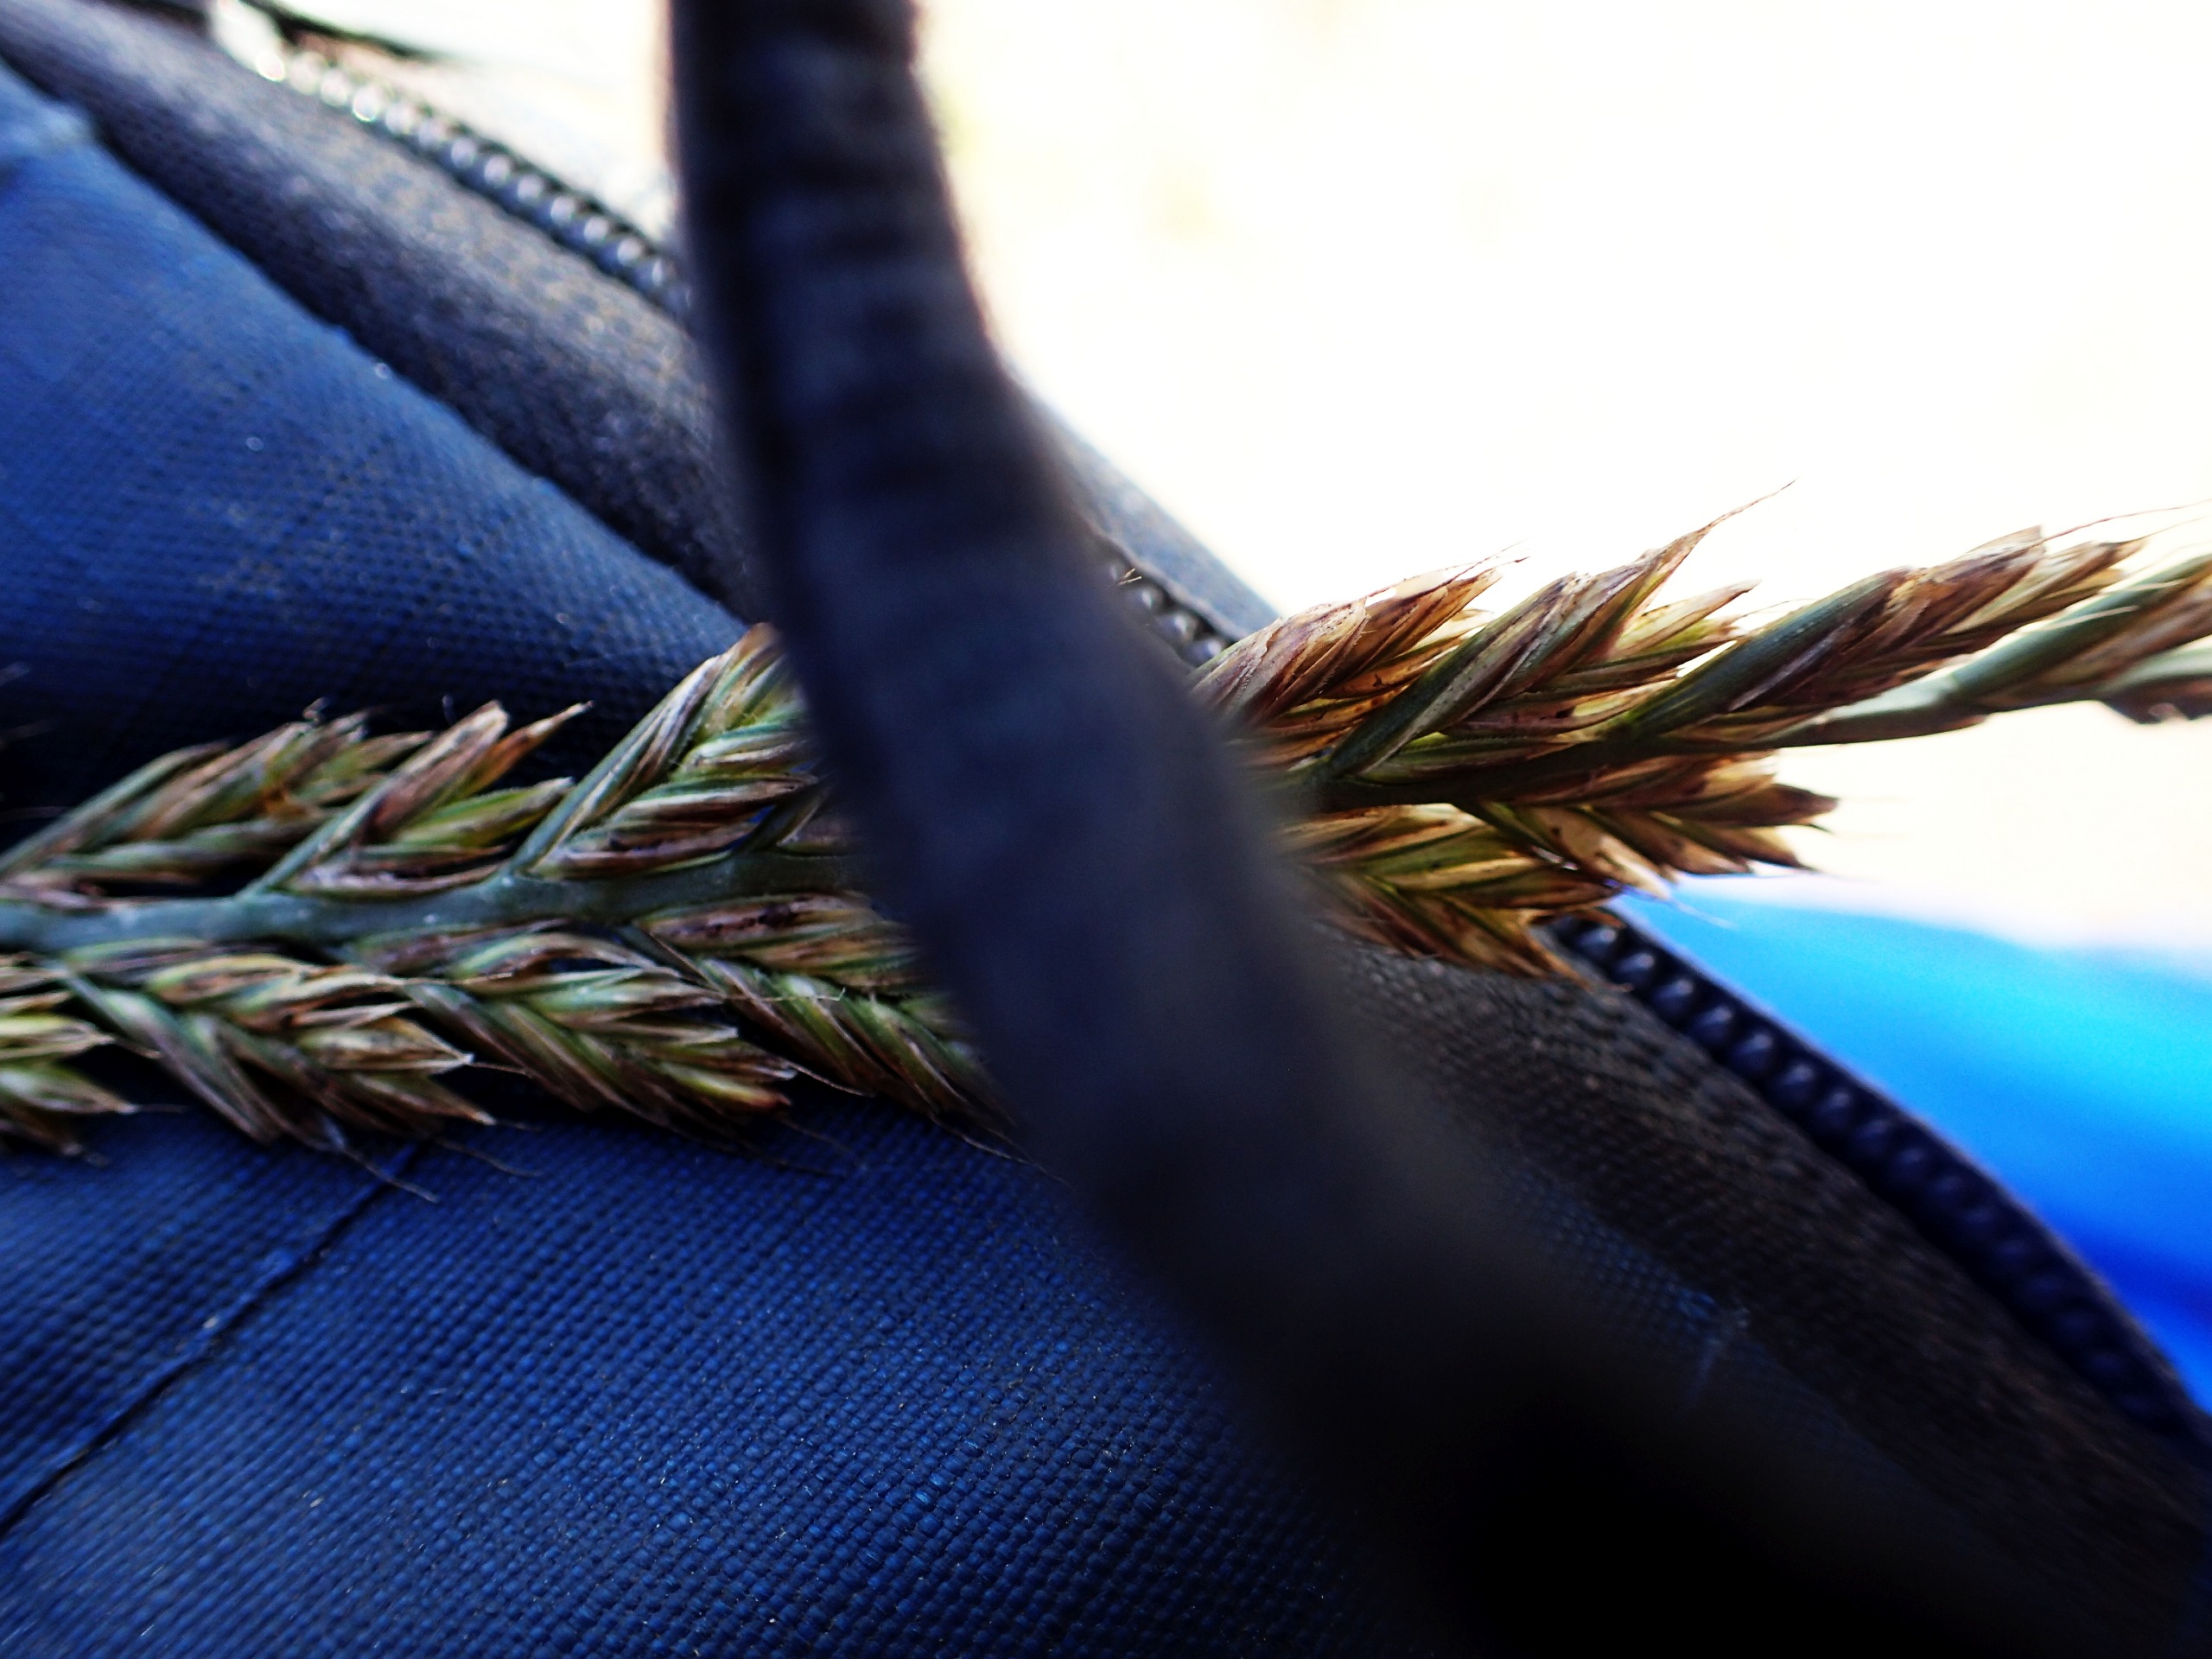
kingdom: Plantae
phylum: Tracheophyta
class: Liliopsida
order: Poales
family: Poaceae
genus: Lolium
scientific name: Lolium
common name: Italiensk rajgræs × almindelig rajgræs
